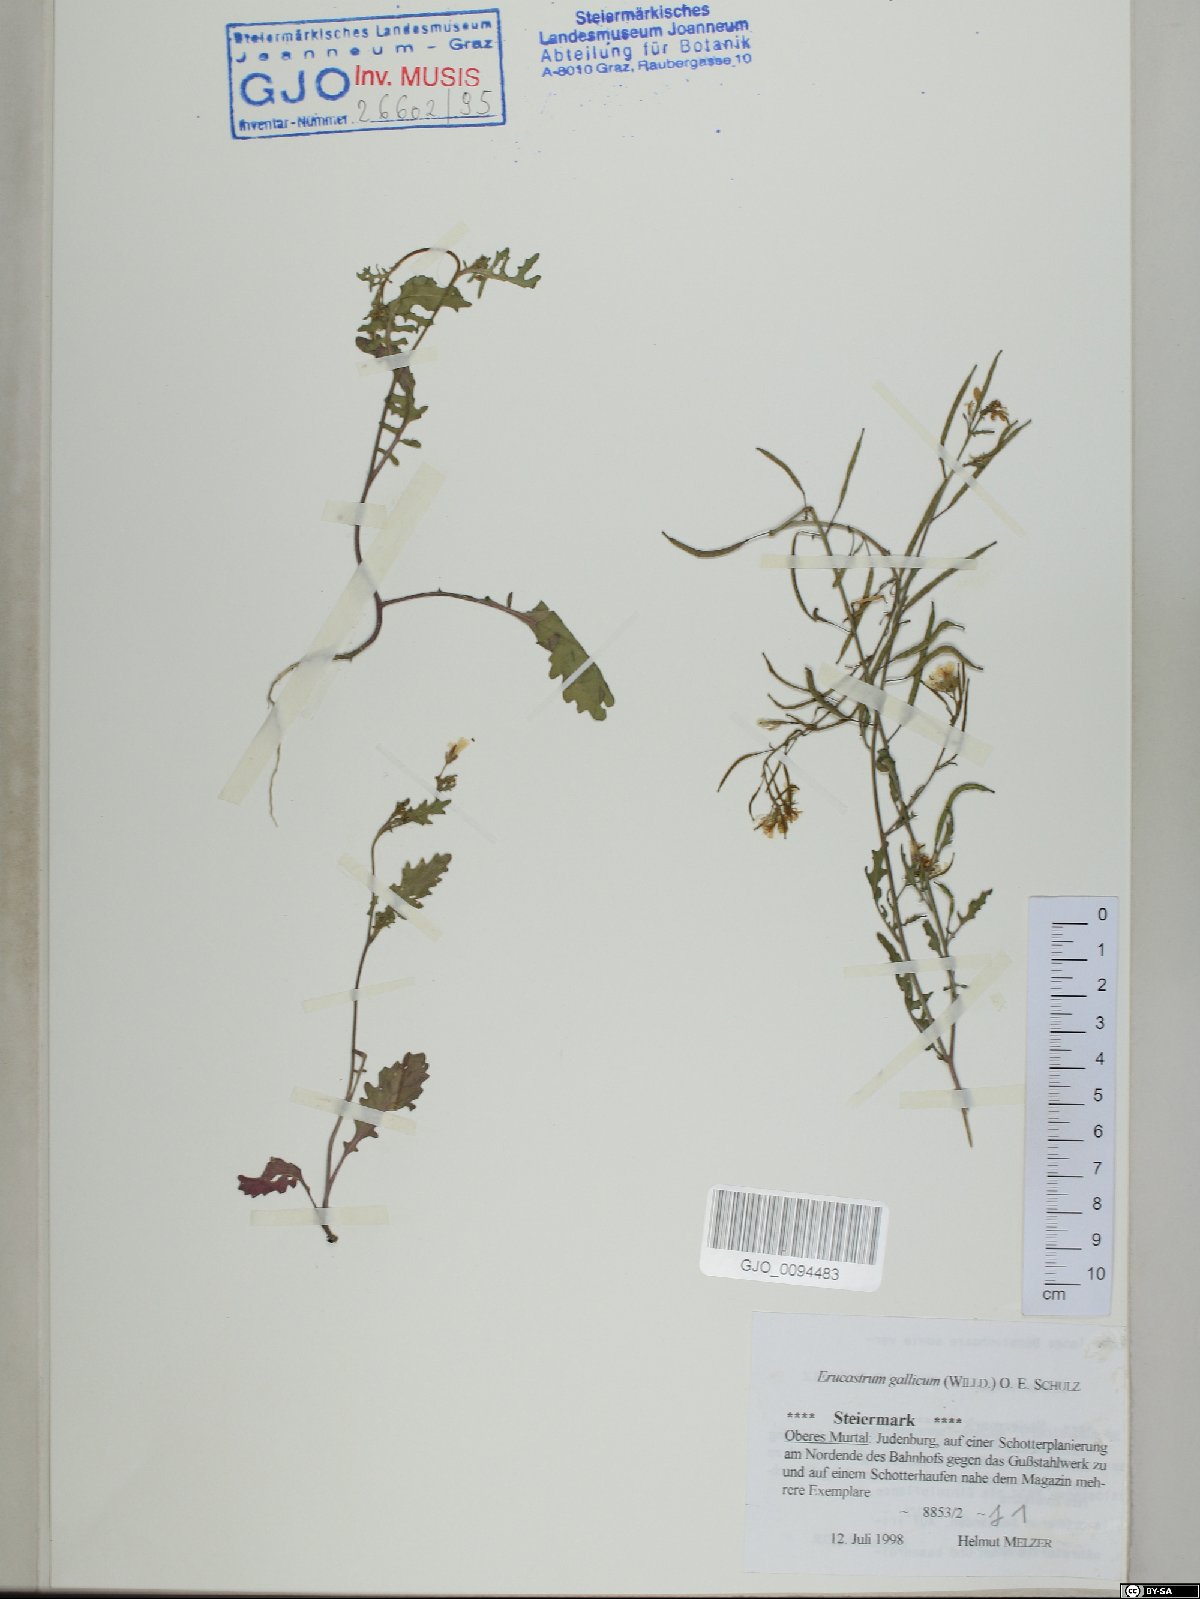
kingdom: Plantae
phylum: Tracheophyta
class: Magnoliopsida
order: Brassicales
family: Brassicaceae
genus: Erucastrum
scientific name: Erucastrum gallicum
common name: Hairy rocket
